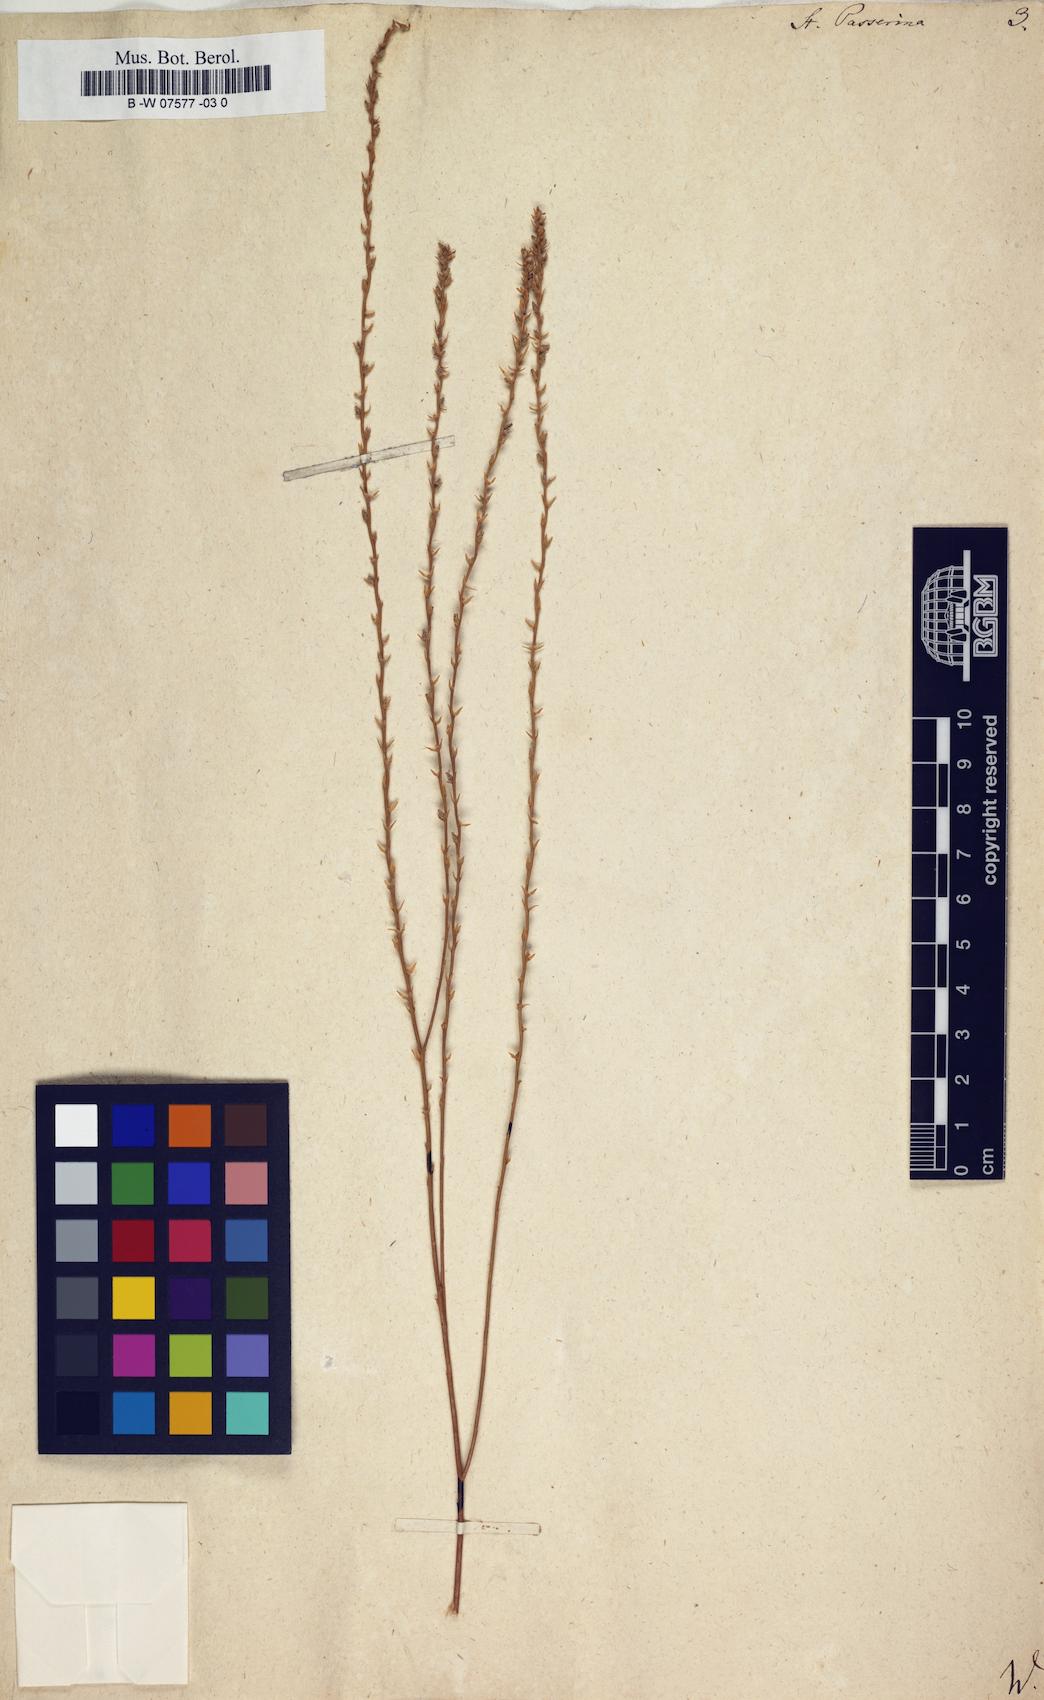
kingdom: Plantae
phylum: Tracheophyta
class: Magnoliopsida
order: Malvales
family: Thymelaeaceae
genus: Thymelaea
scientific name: Thymelaea passerina
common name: Annual thymelaea
